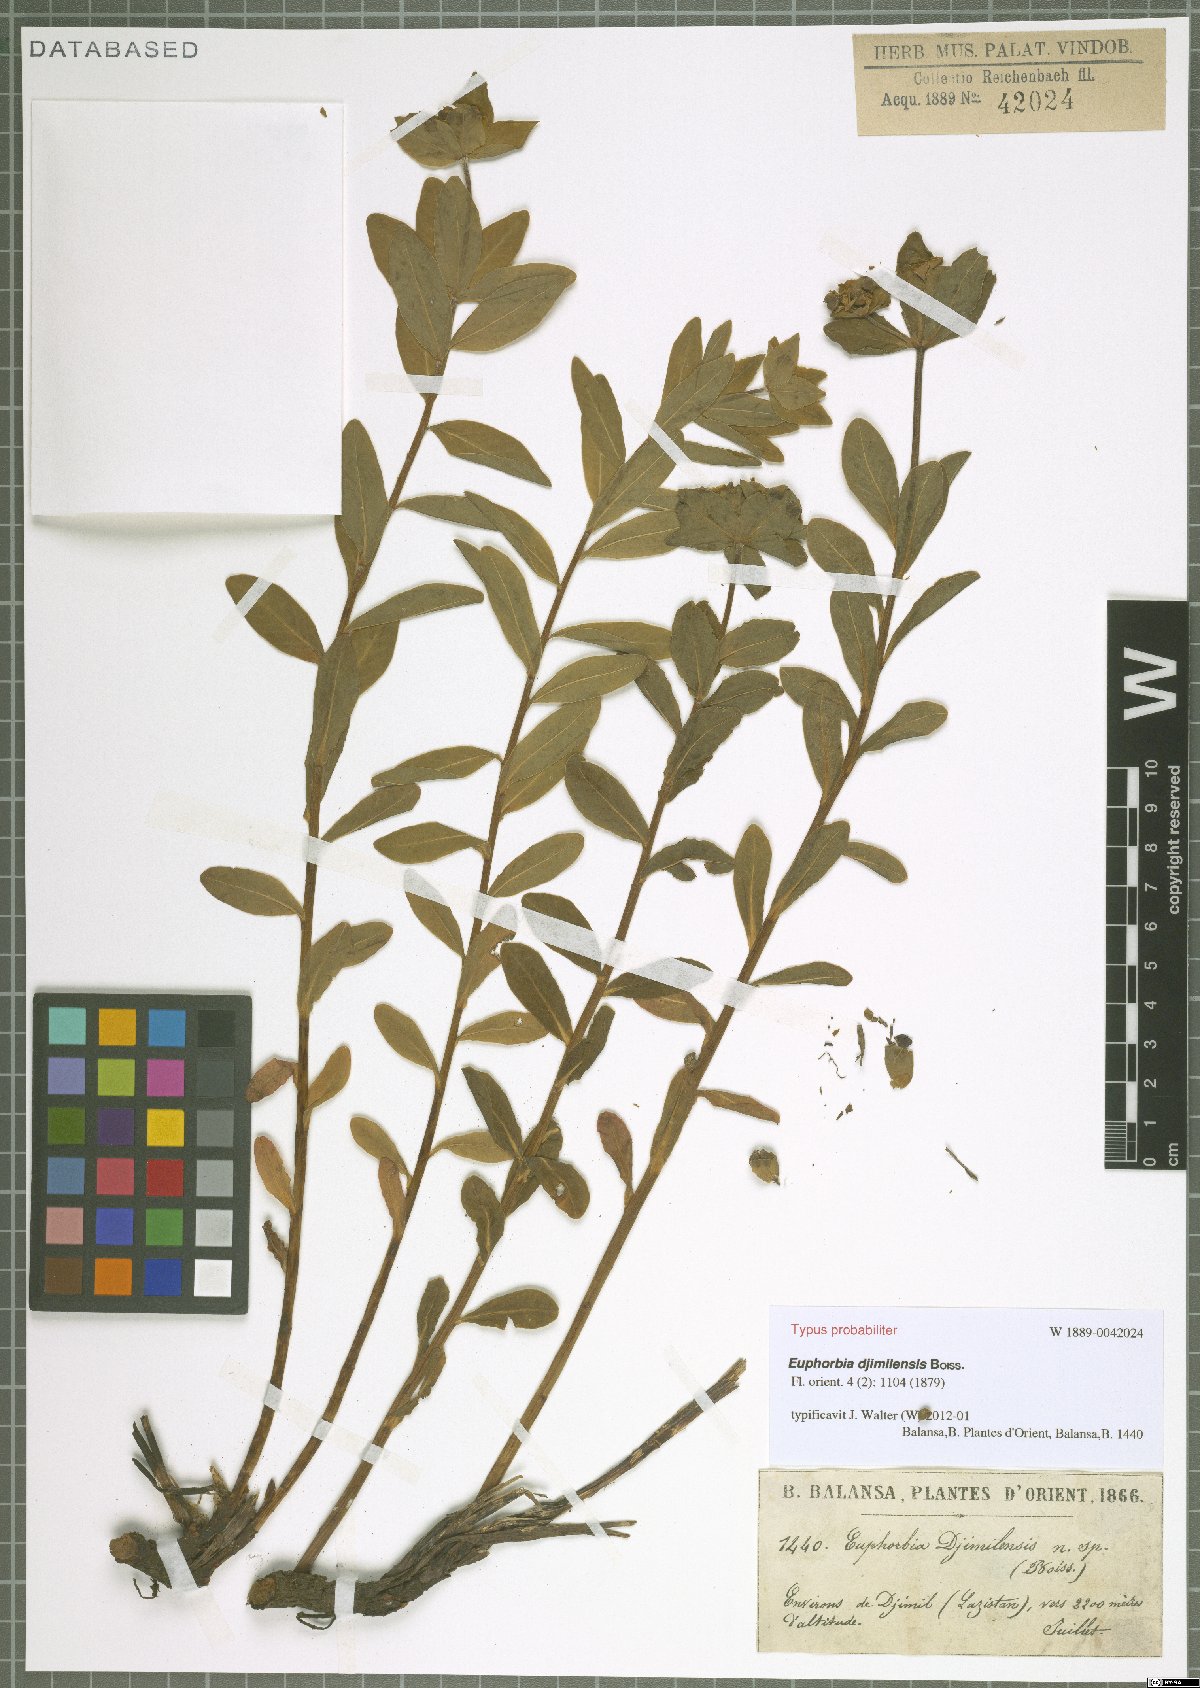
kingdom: Plantae
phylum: Tracheophyta
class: Magnoliopsida
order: Malpighiales
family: Euphorbiaceae
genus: Euphorbia
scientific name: Euphorbia djimilensis
